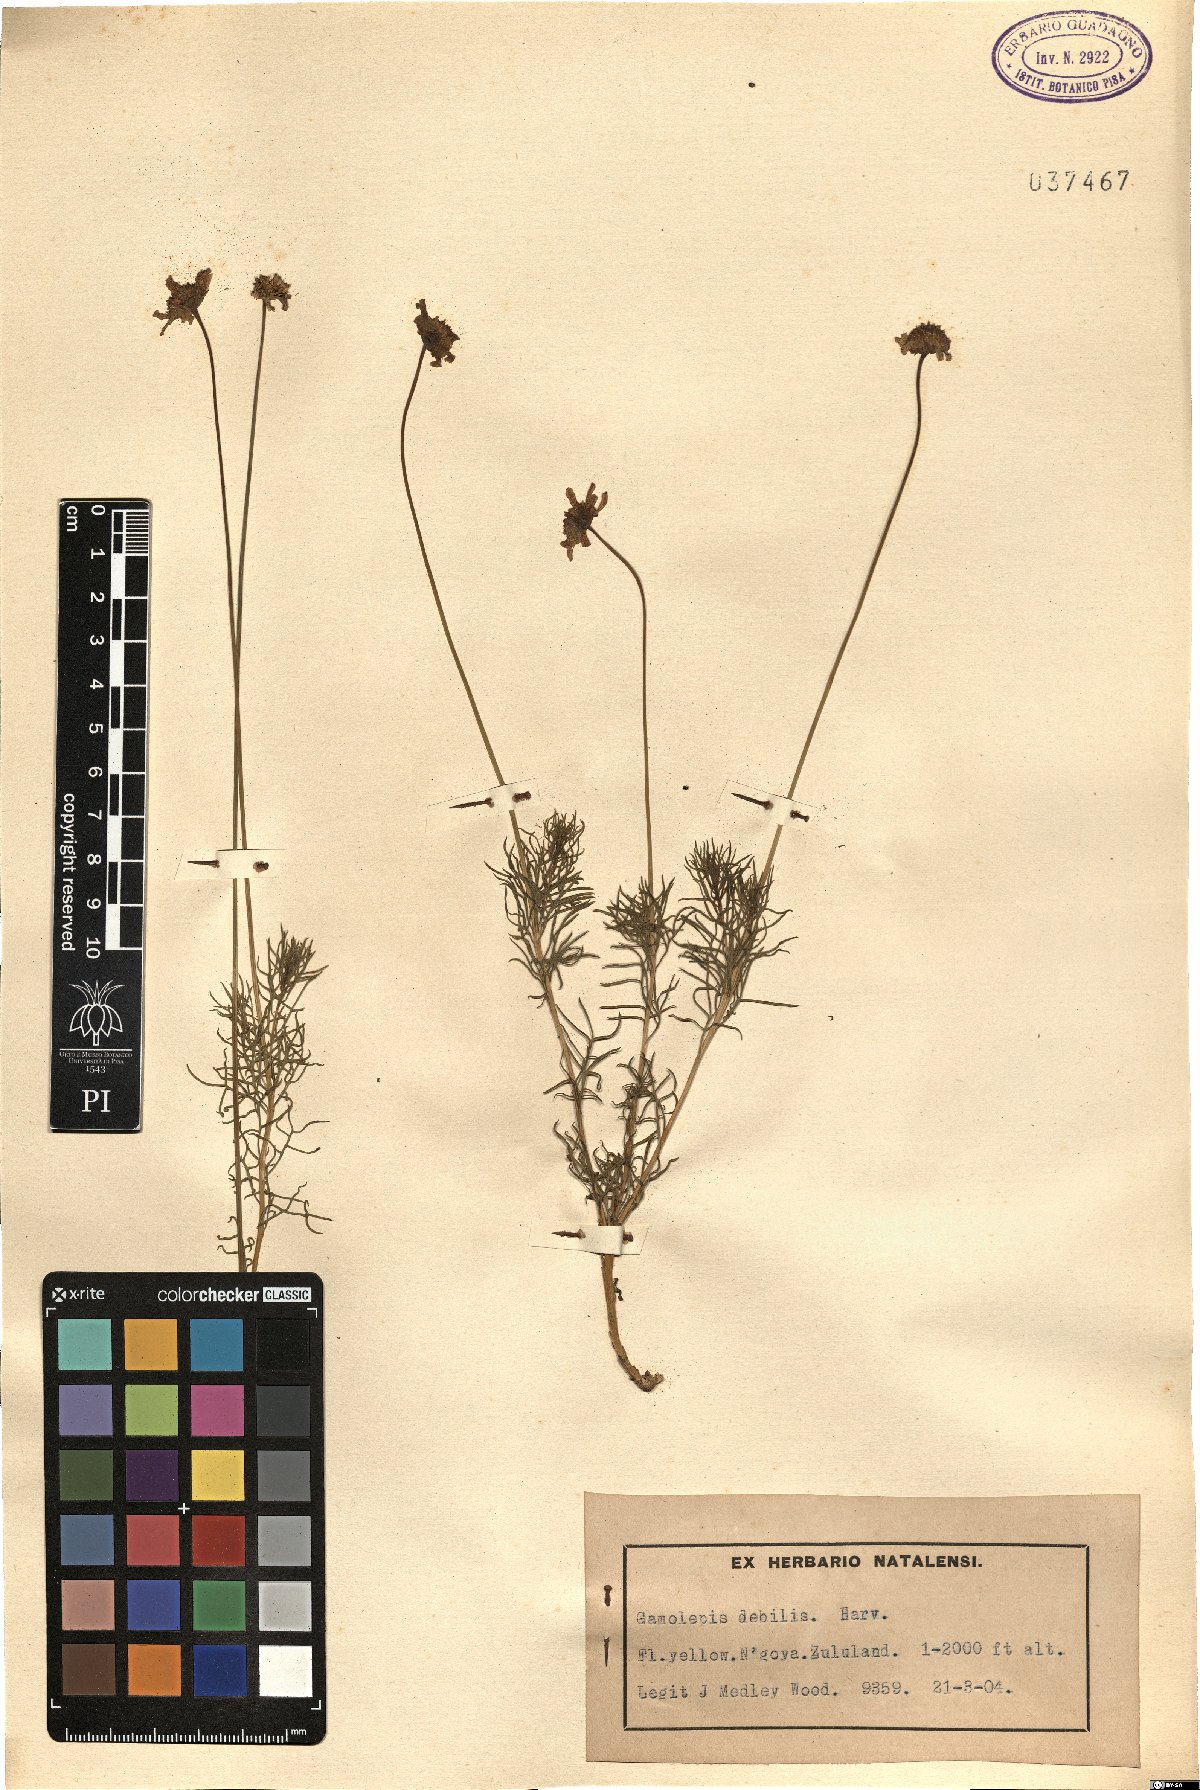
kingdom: Plantae
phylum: Tracheophyta
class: Magnoliopsida
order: Asterales
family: Asteraceae
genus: Euryops
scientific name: Euryops laxus
